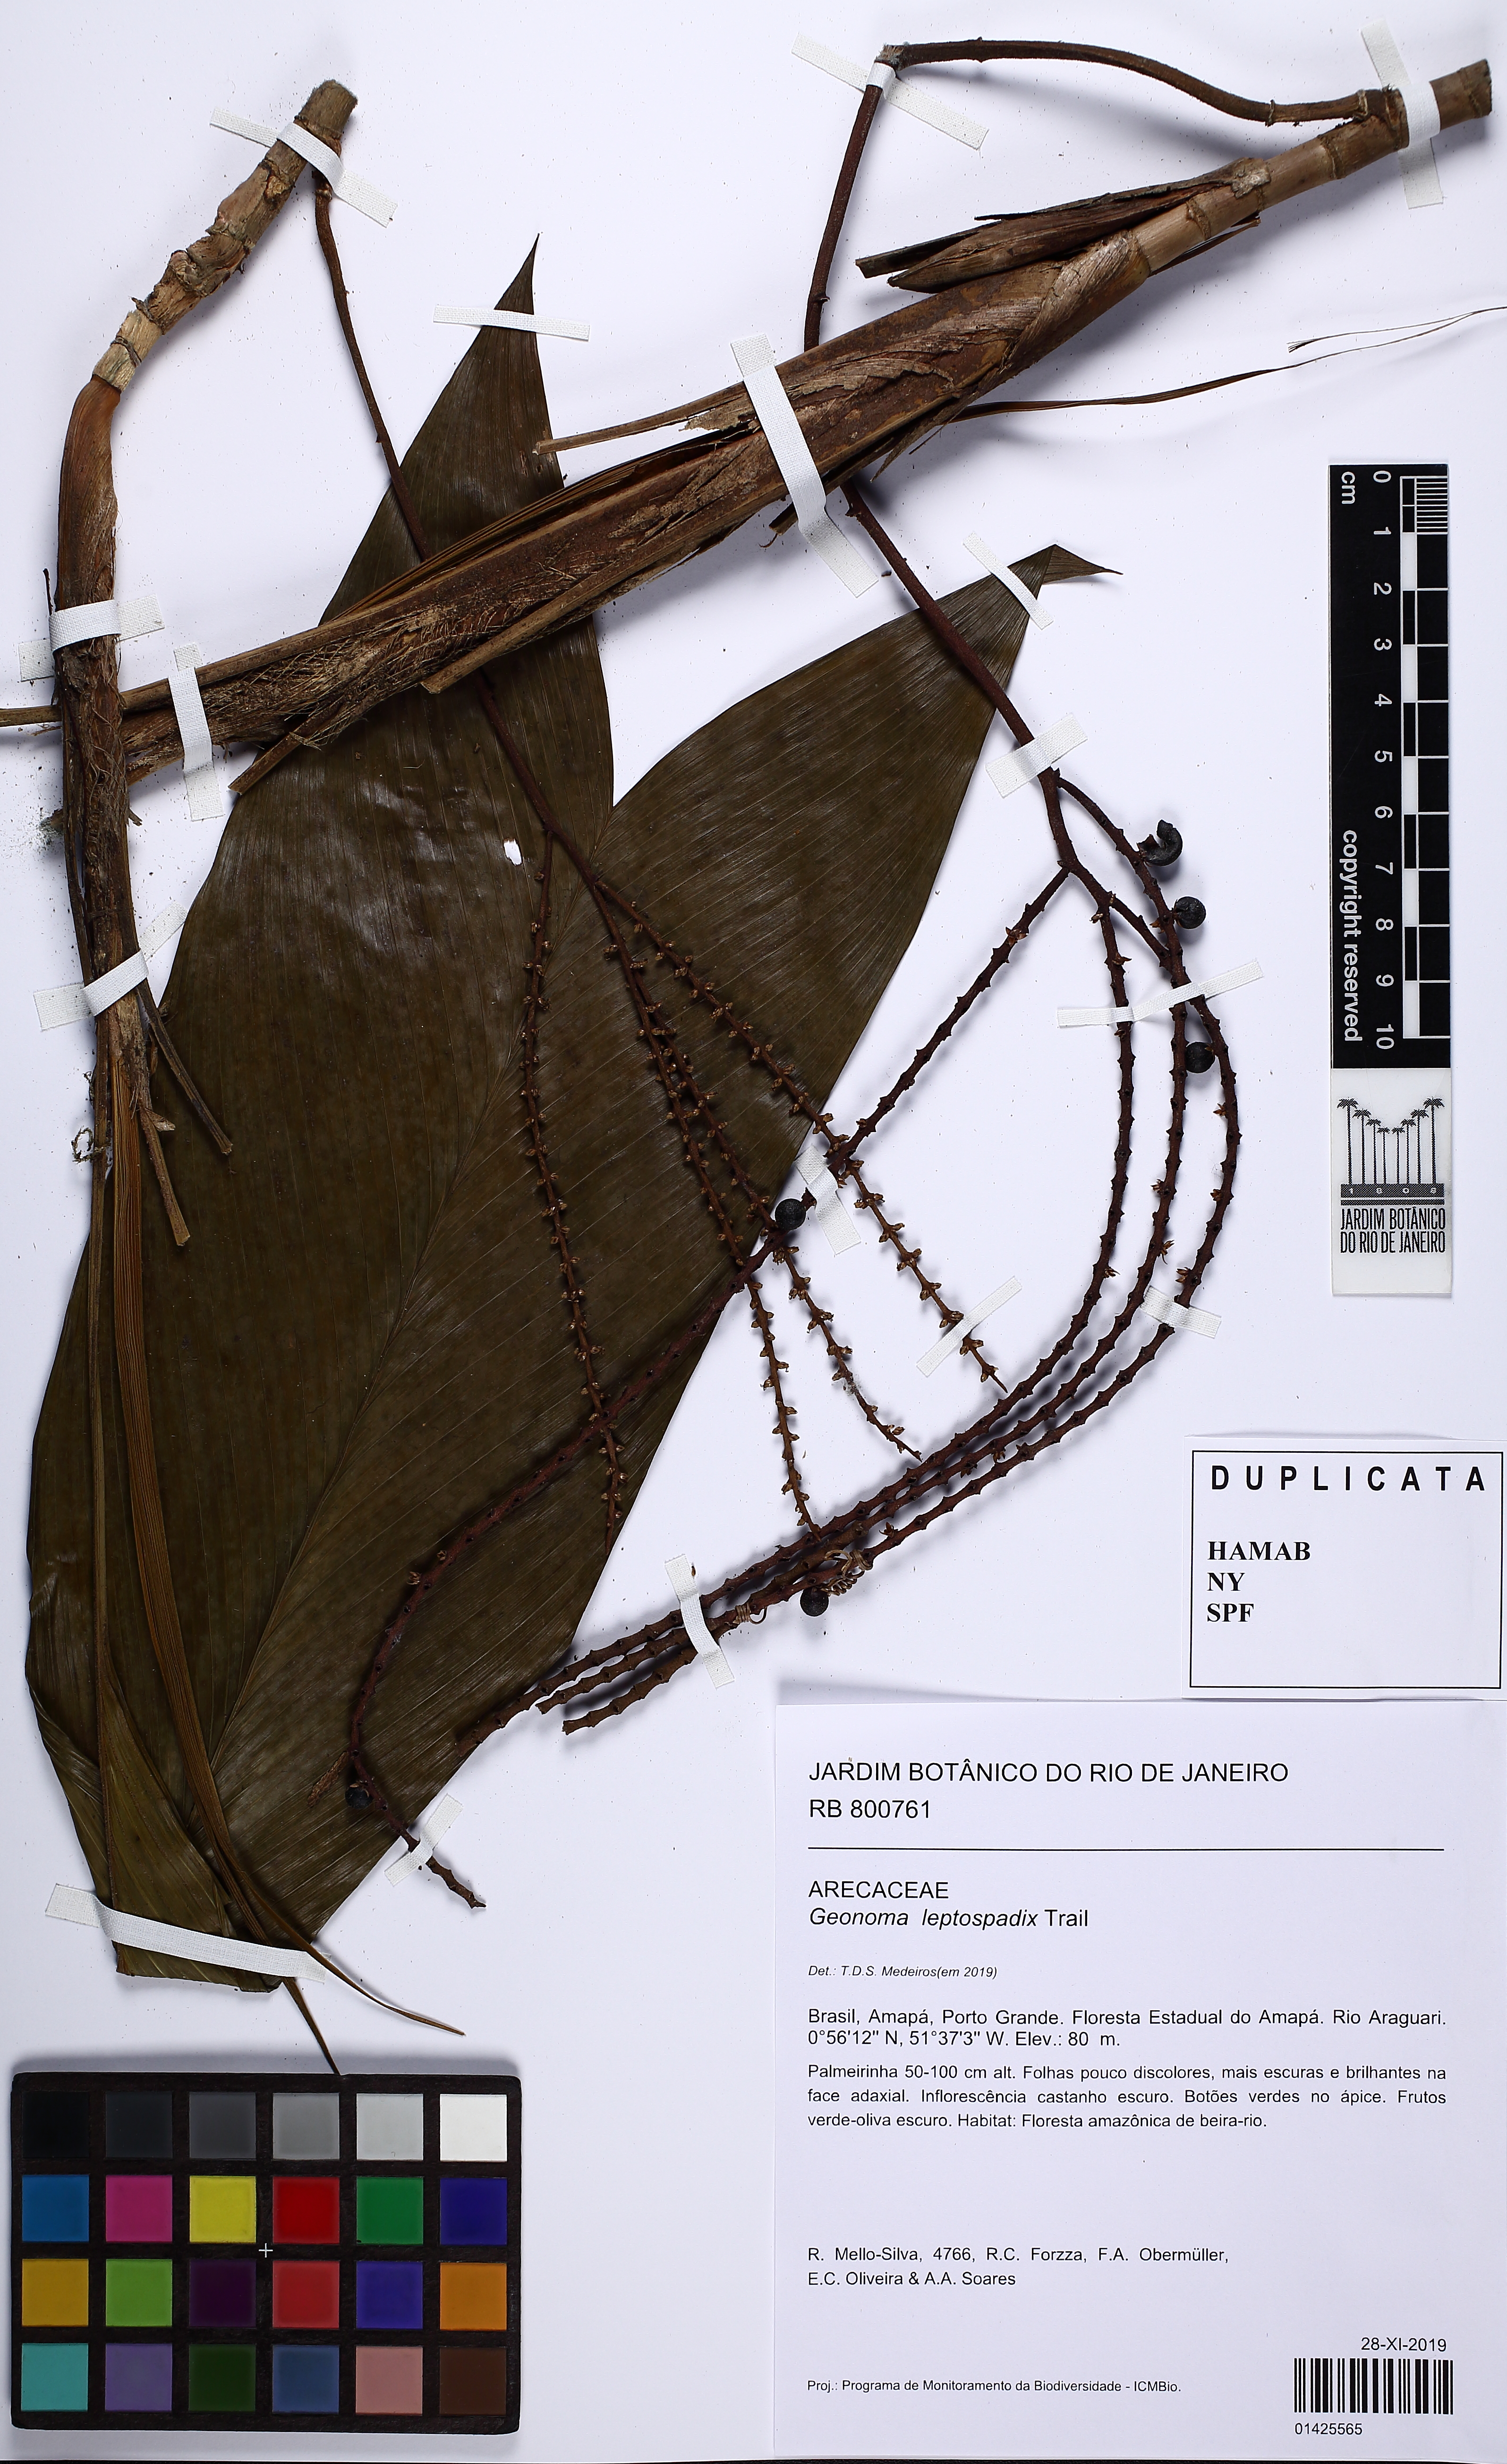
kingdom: Plantae
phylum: Tracheophyta
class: Liliopsida
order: Arecales
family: Arecaceae
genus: Geonoma
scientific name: Geonoma leptospadix
